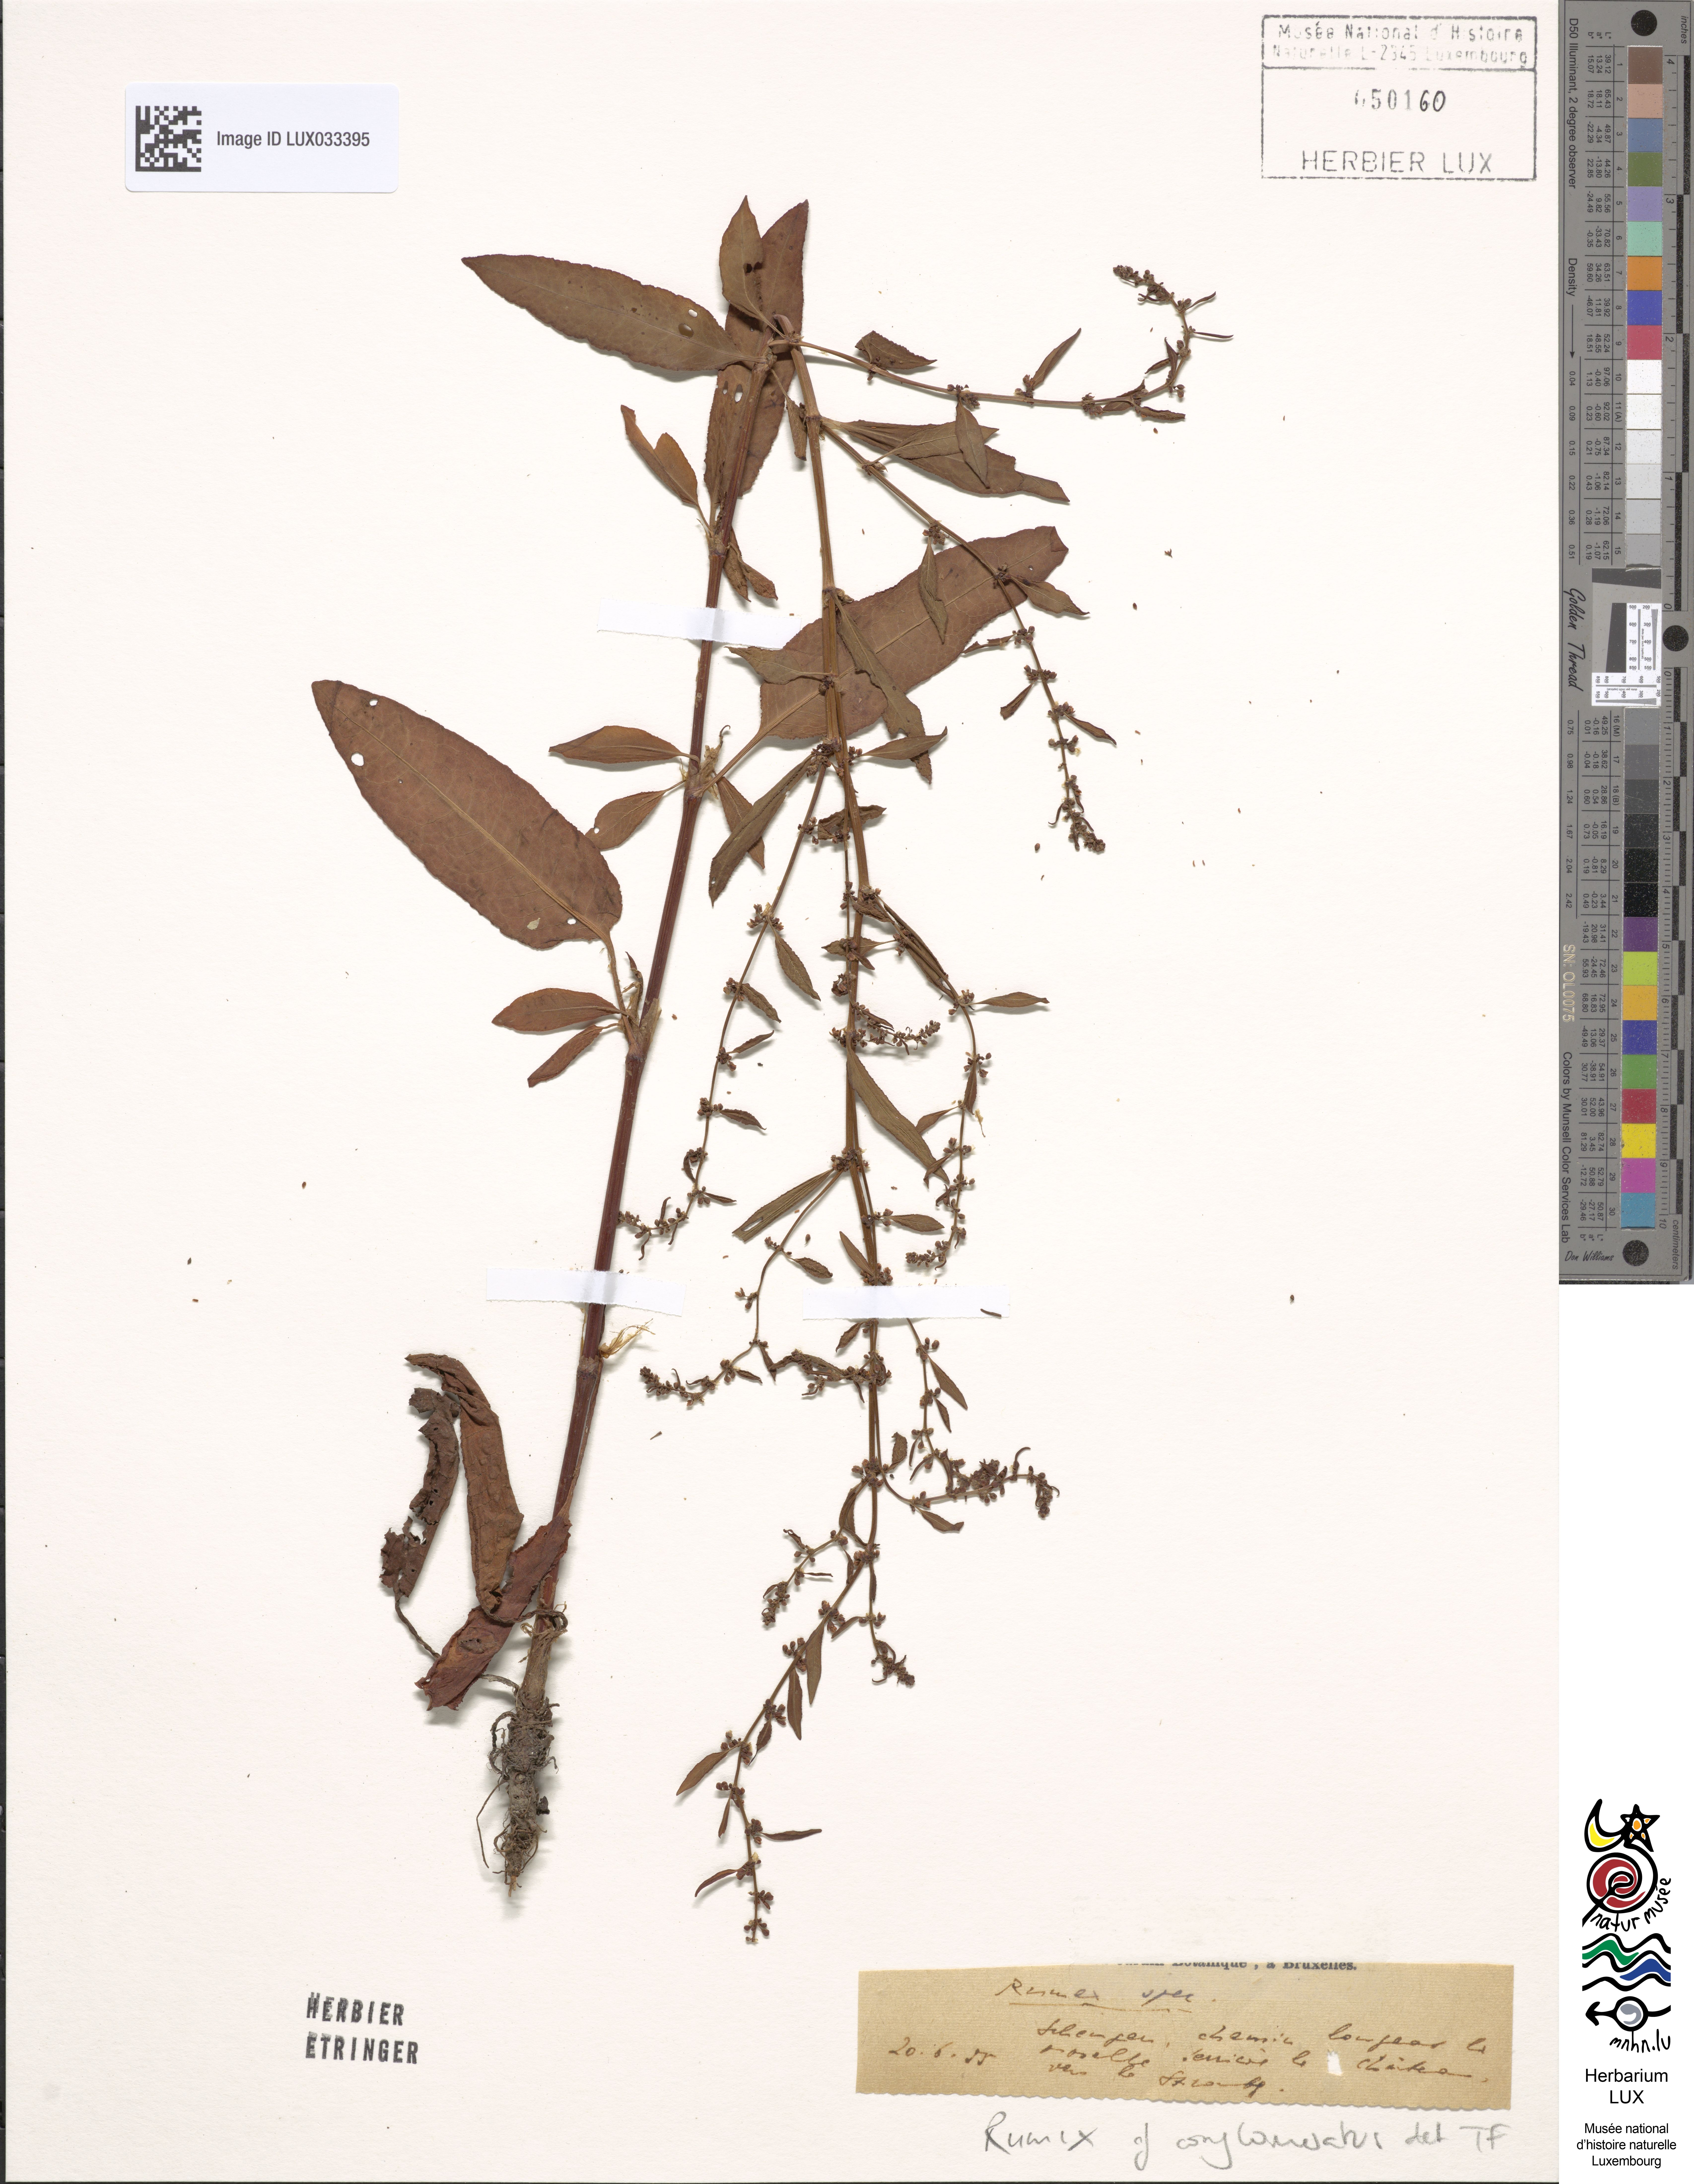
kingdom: Plantae
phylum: Tracheophyta
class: Magnoliopsida
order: Caryophyllales
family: Polygonaceae
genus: Rumex
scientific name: Rumex conglomeratus
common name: Clustered dock
